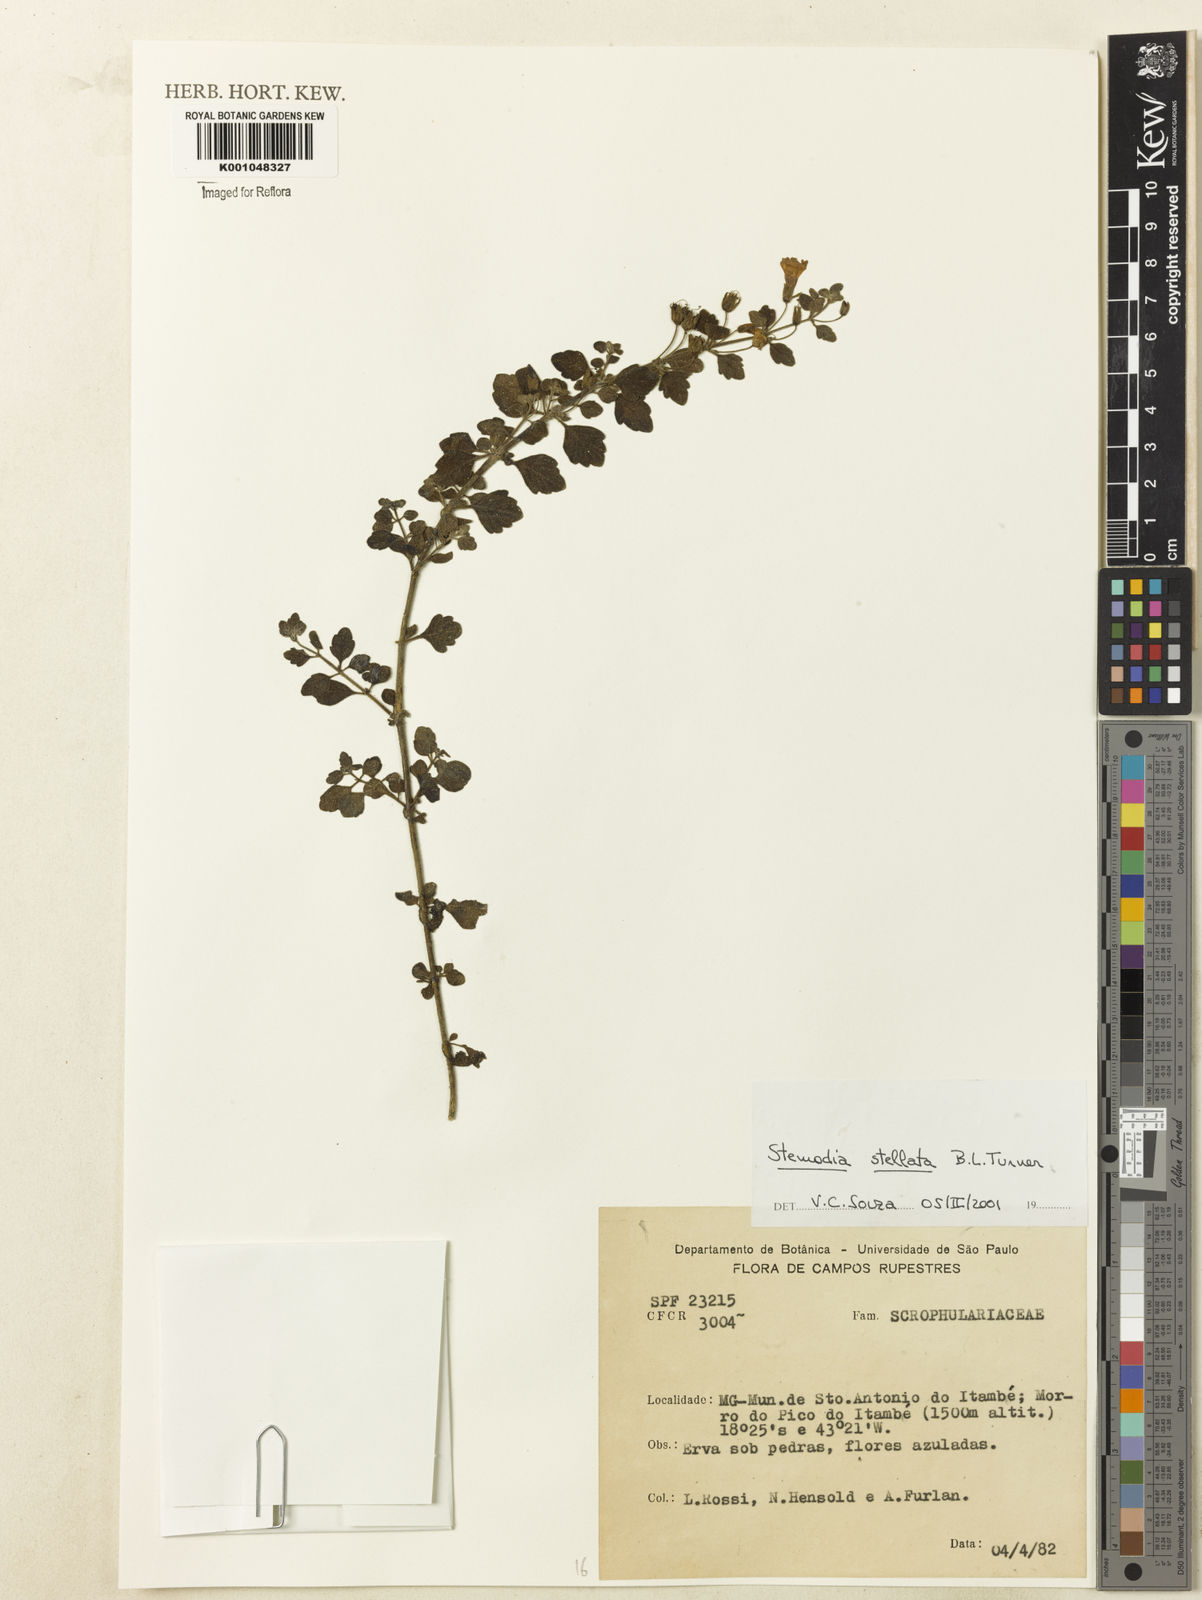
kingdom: Plantae
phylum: Tracheophyta
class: Magnoliopsida
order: Lamiales
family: Plantaginaceae
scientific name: Plantaginaceae
